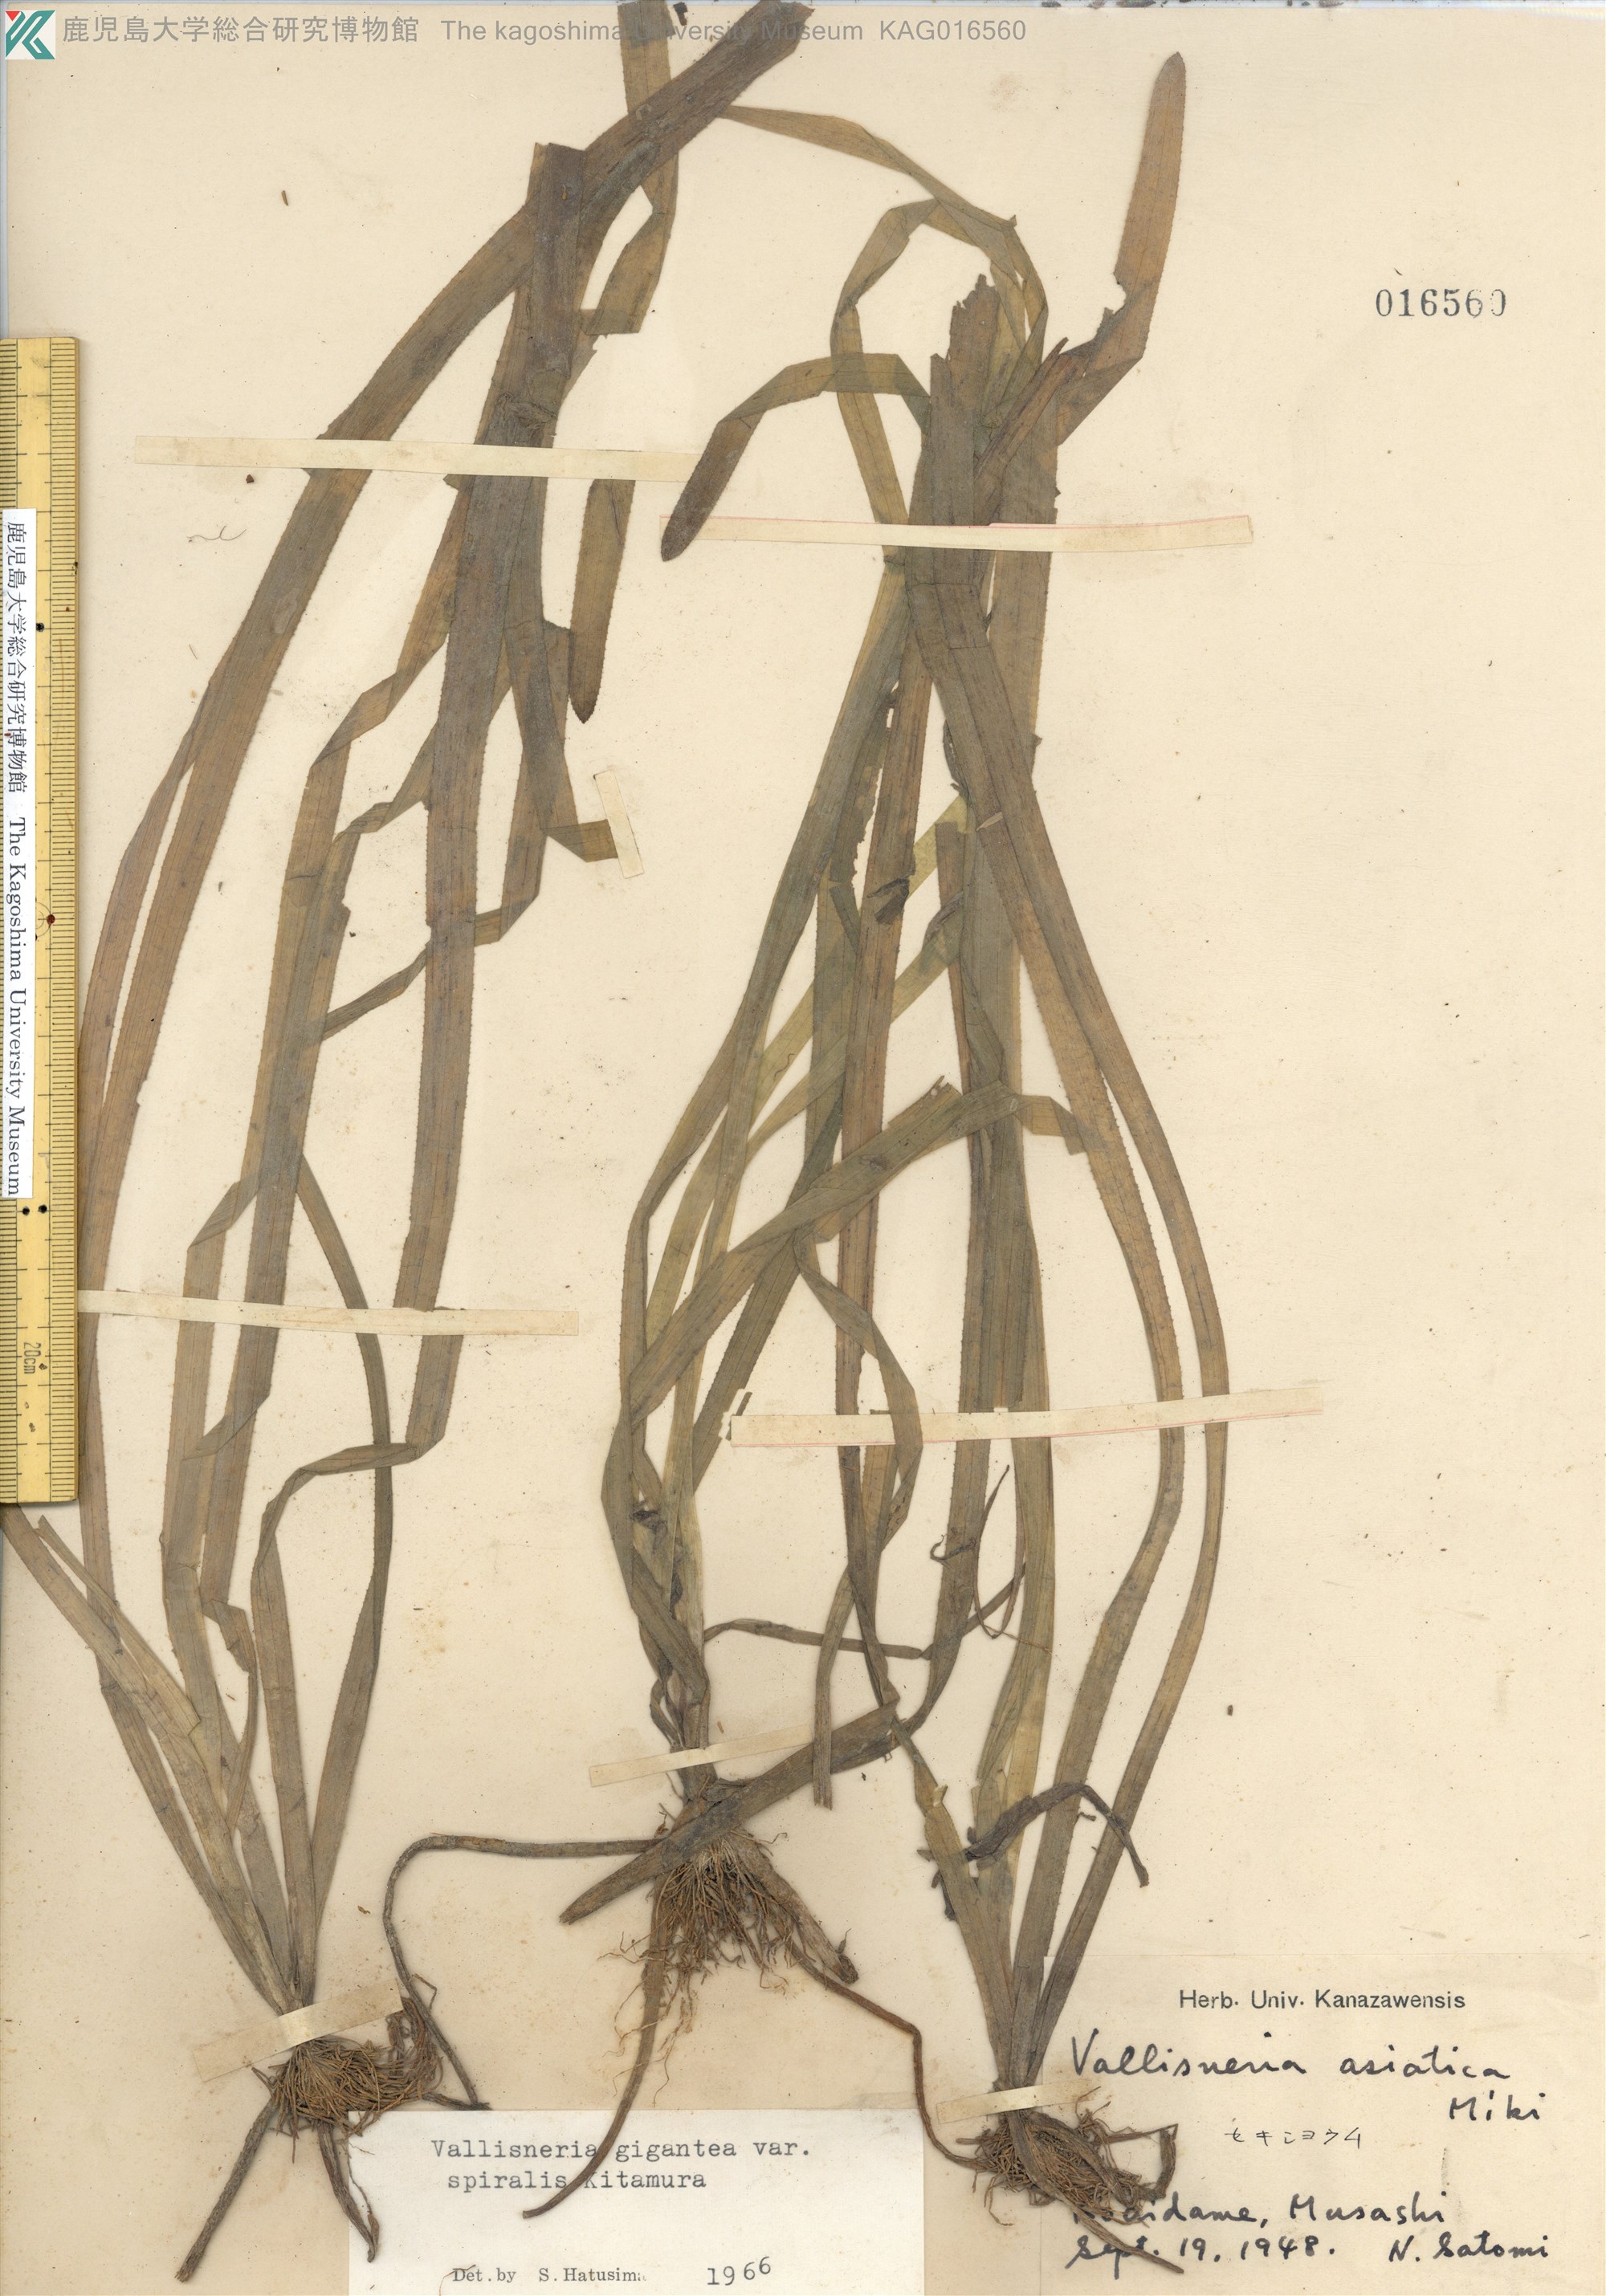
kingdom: Plantae
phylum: Tracheophyta
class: Liliopsida
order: Alismatales
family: Hydrocharitaceae
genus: Vallisneria
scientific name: Vallisneria natans
